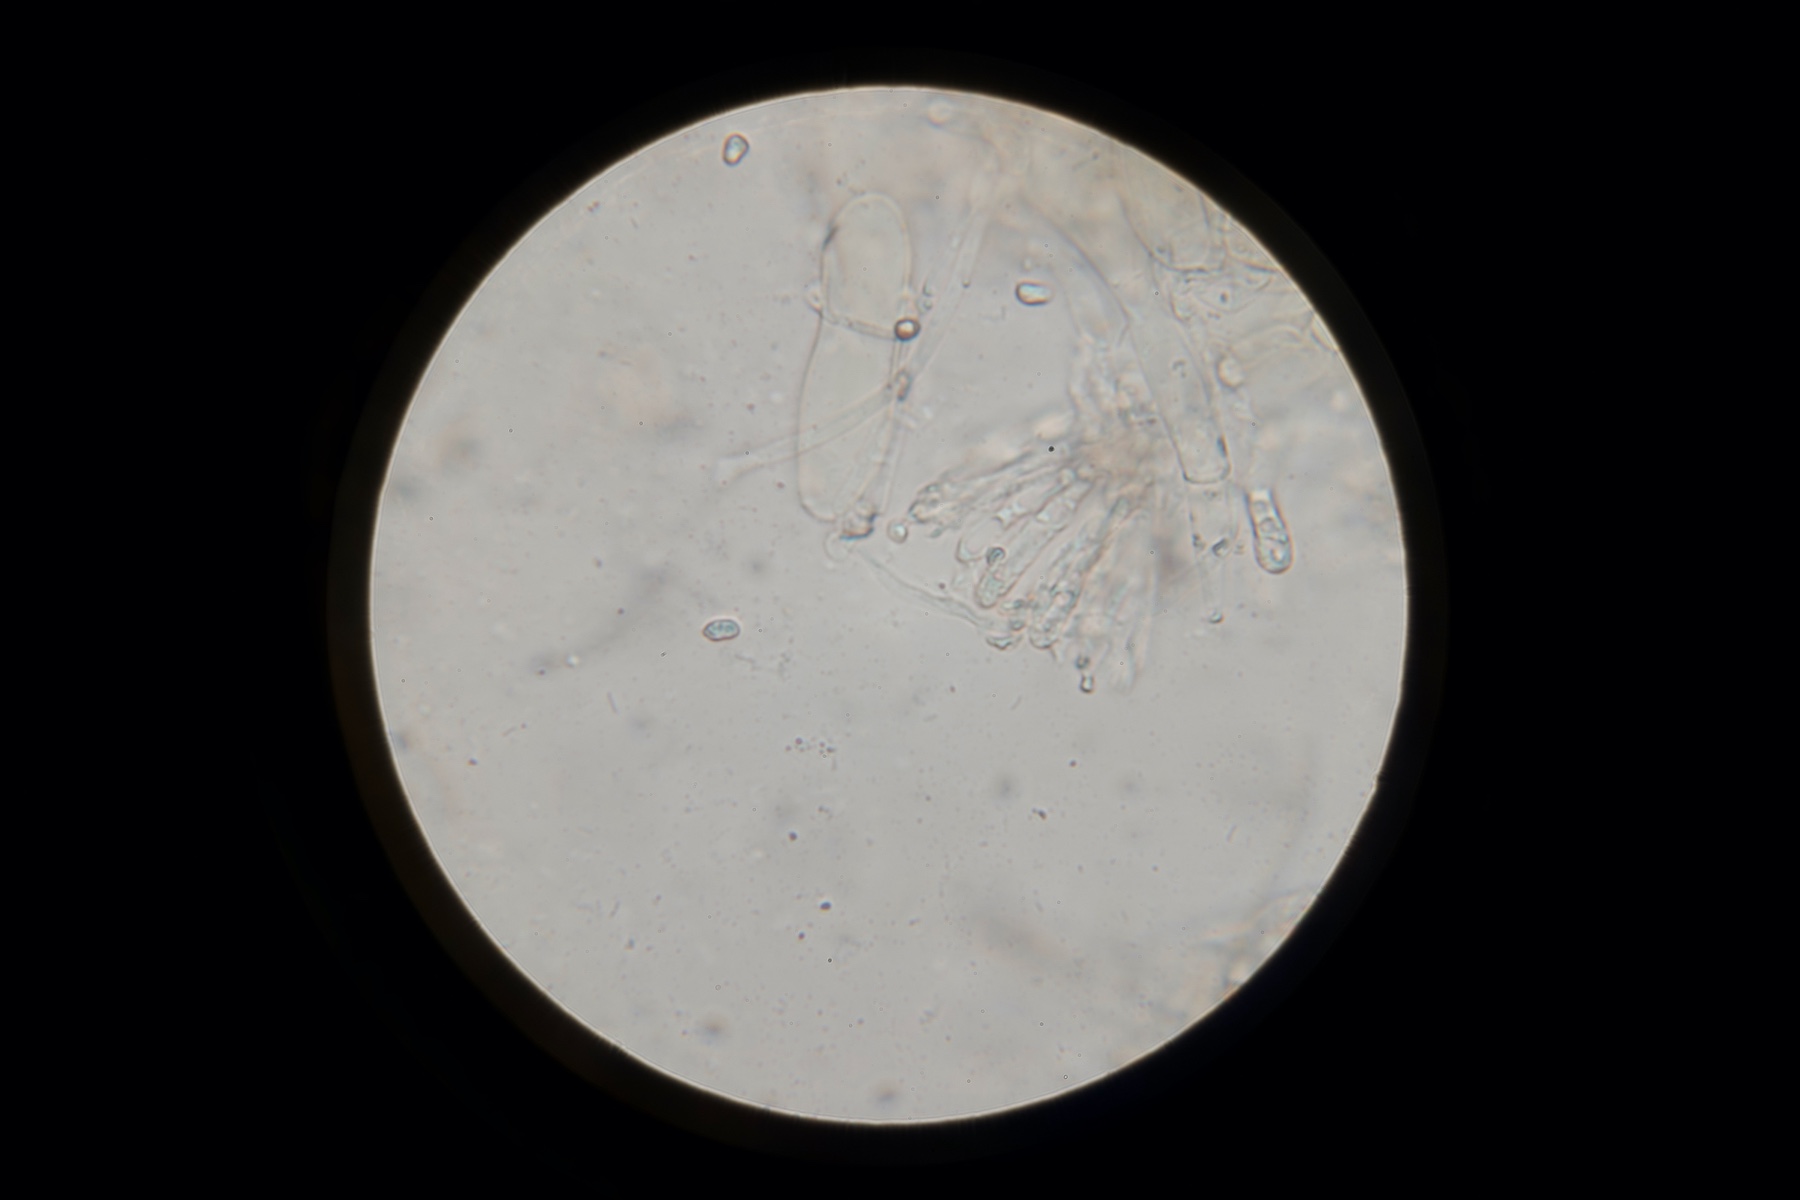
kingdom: Fungi
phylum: Basidiomycota
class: Agaricomycetes
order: Agaricales
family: Hygrophoraceae
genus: Hygrocybe
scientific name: Hygrocybe insipida
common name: liden vokshat
